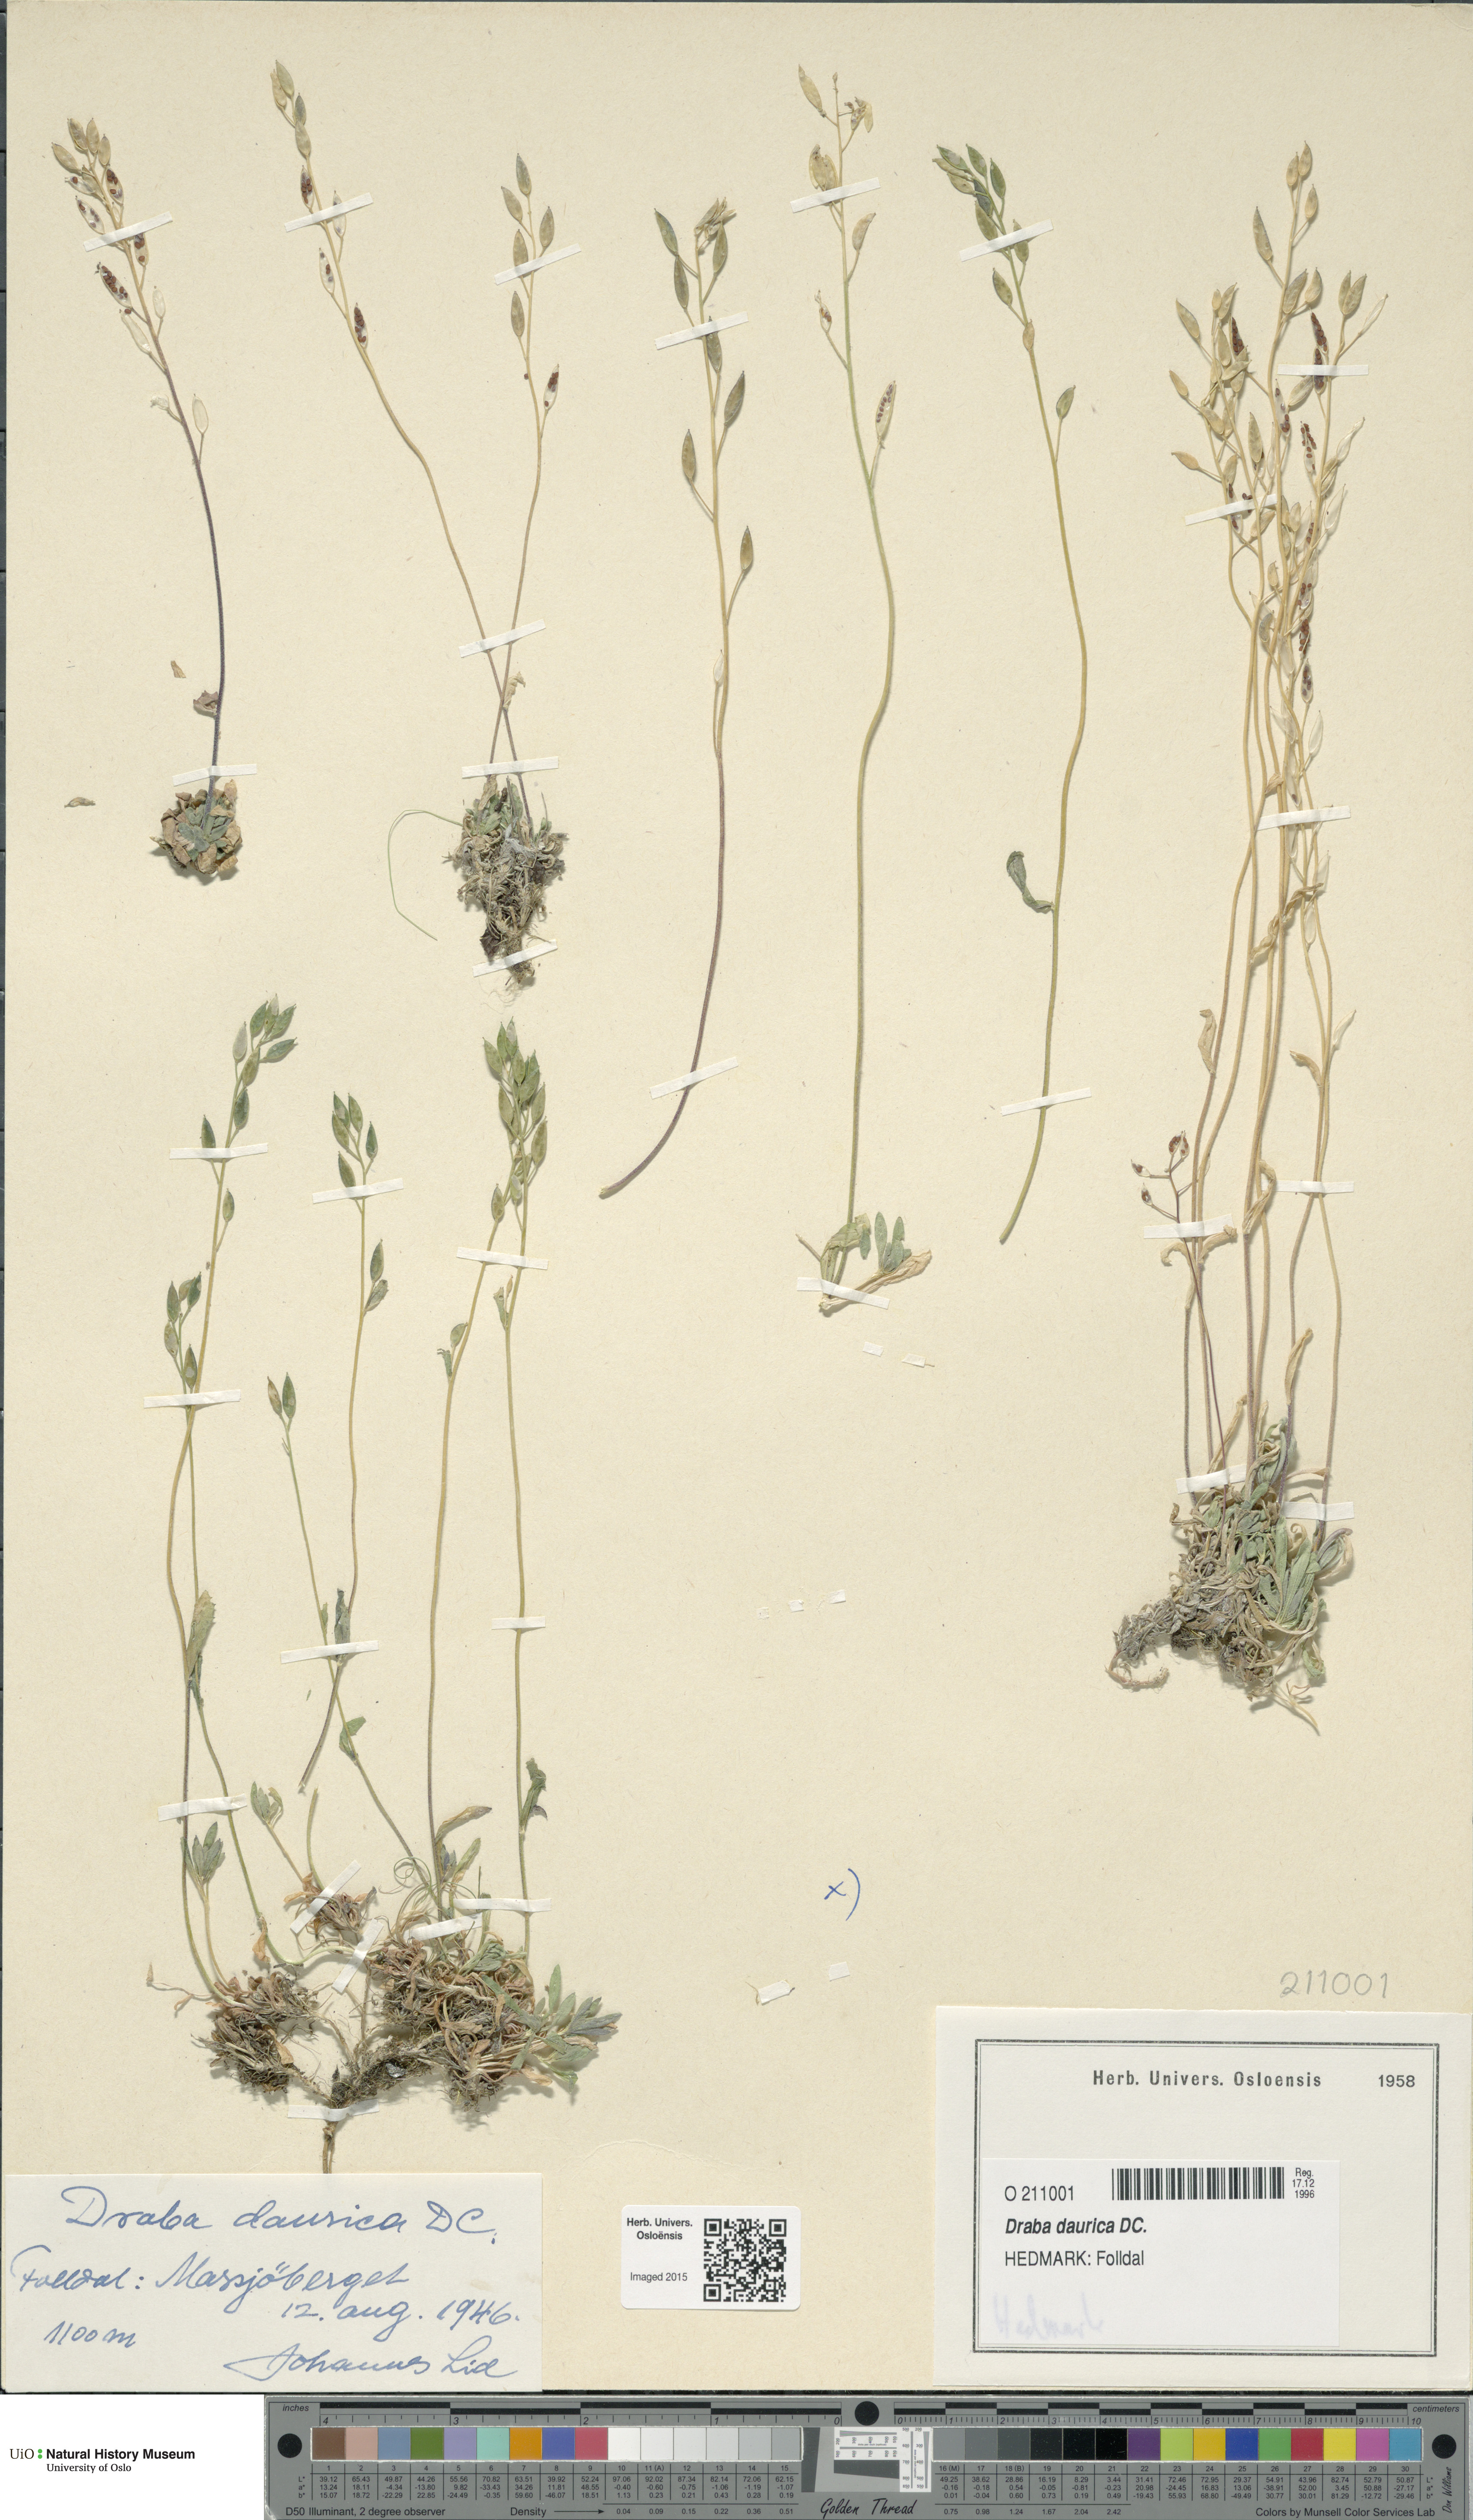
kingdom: Plantae
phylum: Tracheophyta
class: Magnoliopsida
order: Brassicales
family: Brassicaceae
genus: Draba
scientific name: Draba glabella
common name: Glaucous draba
